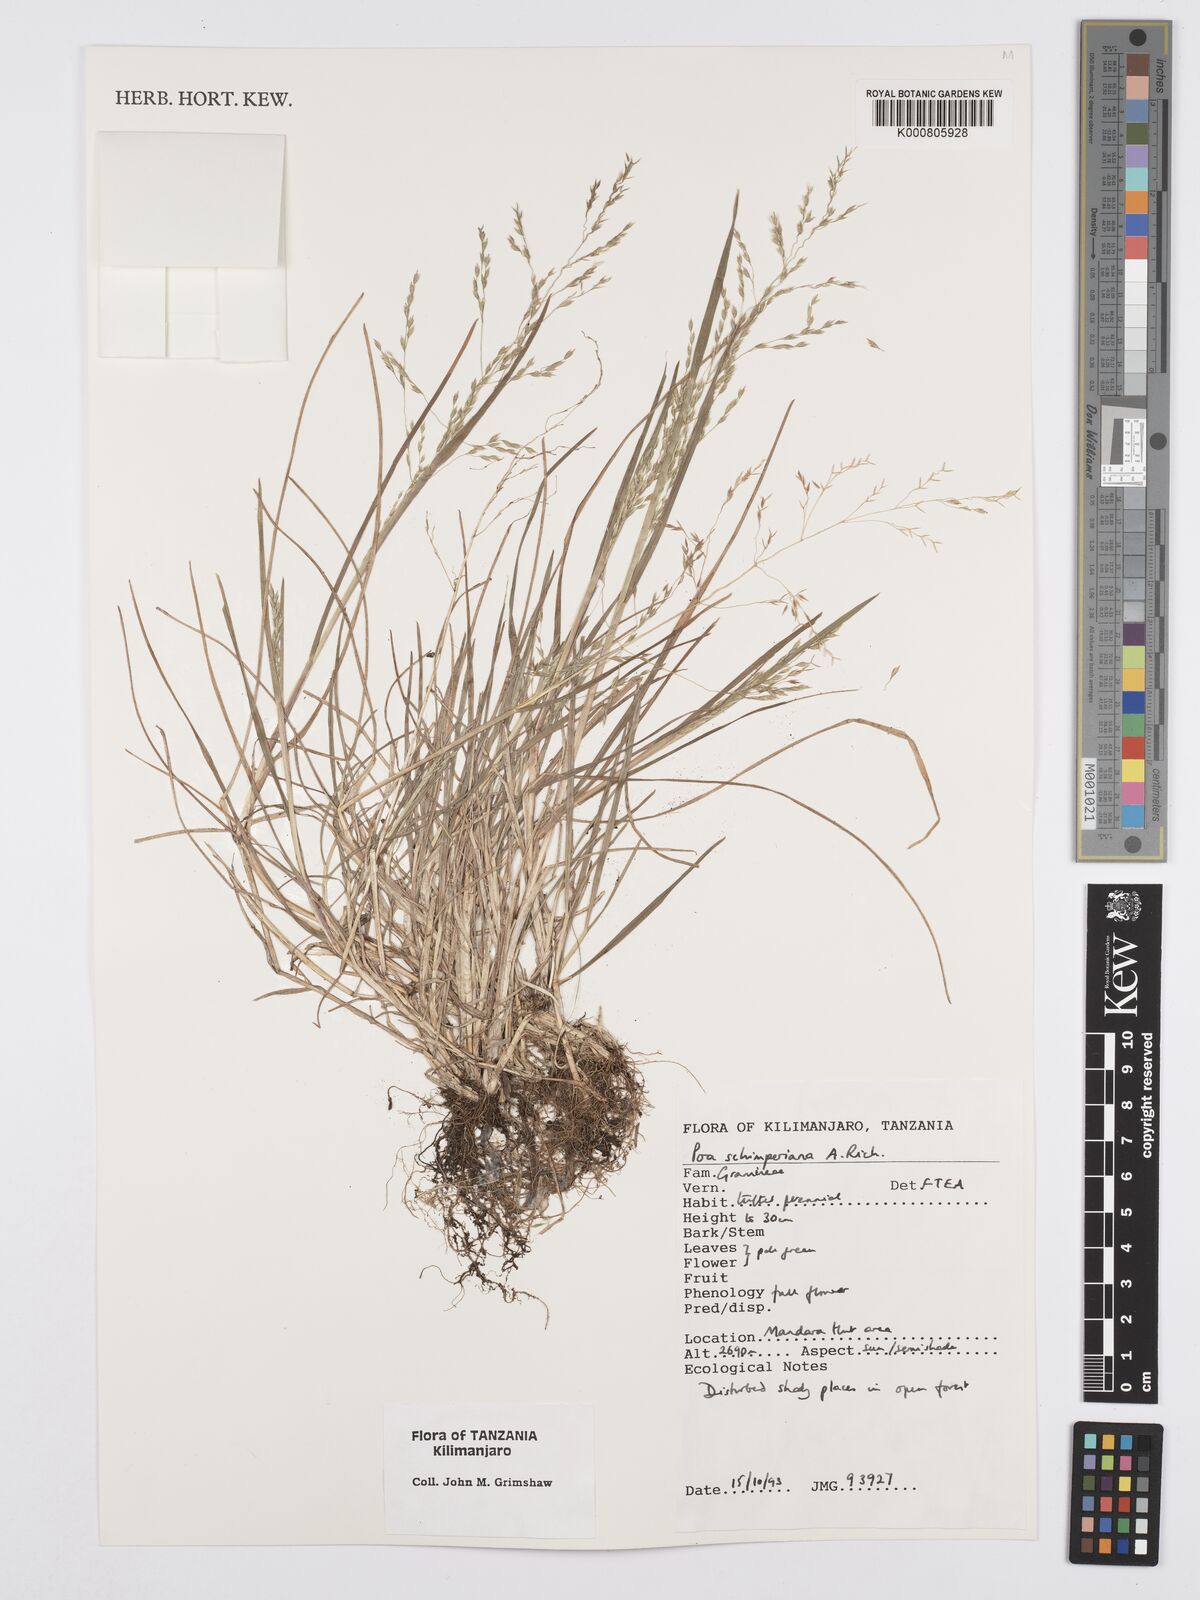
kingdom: Plantae
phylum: Tracheophyta
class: Liliopsida
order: Poales
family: Poaceae
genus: Poa
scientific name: Poa schimperiana
